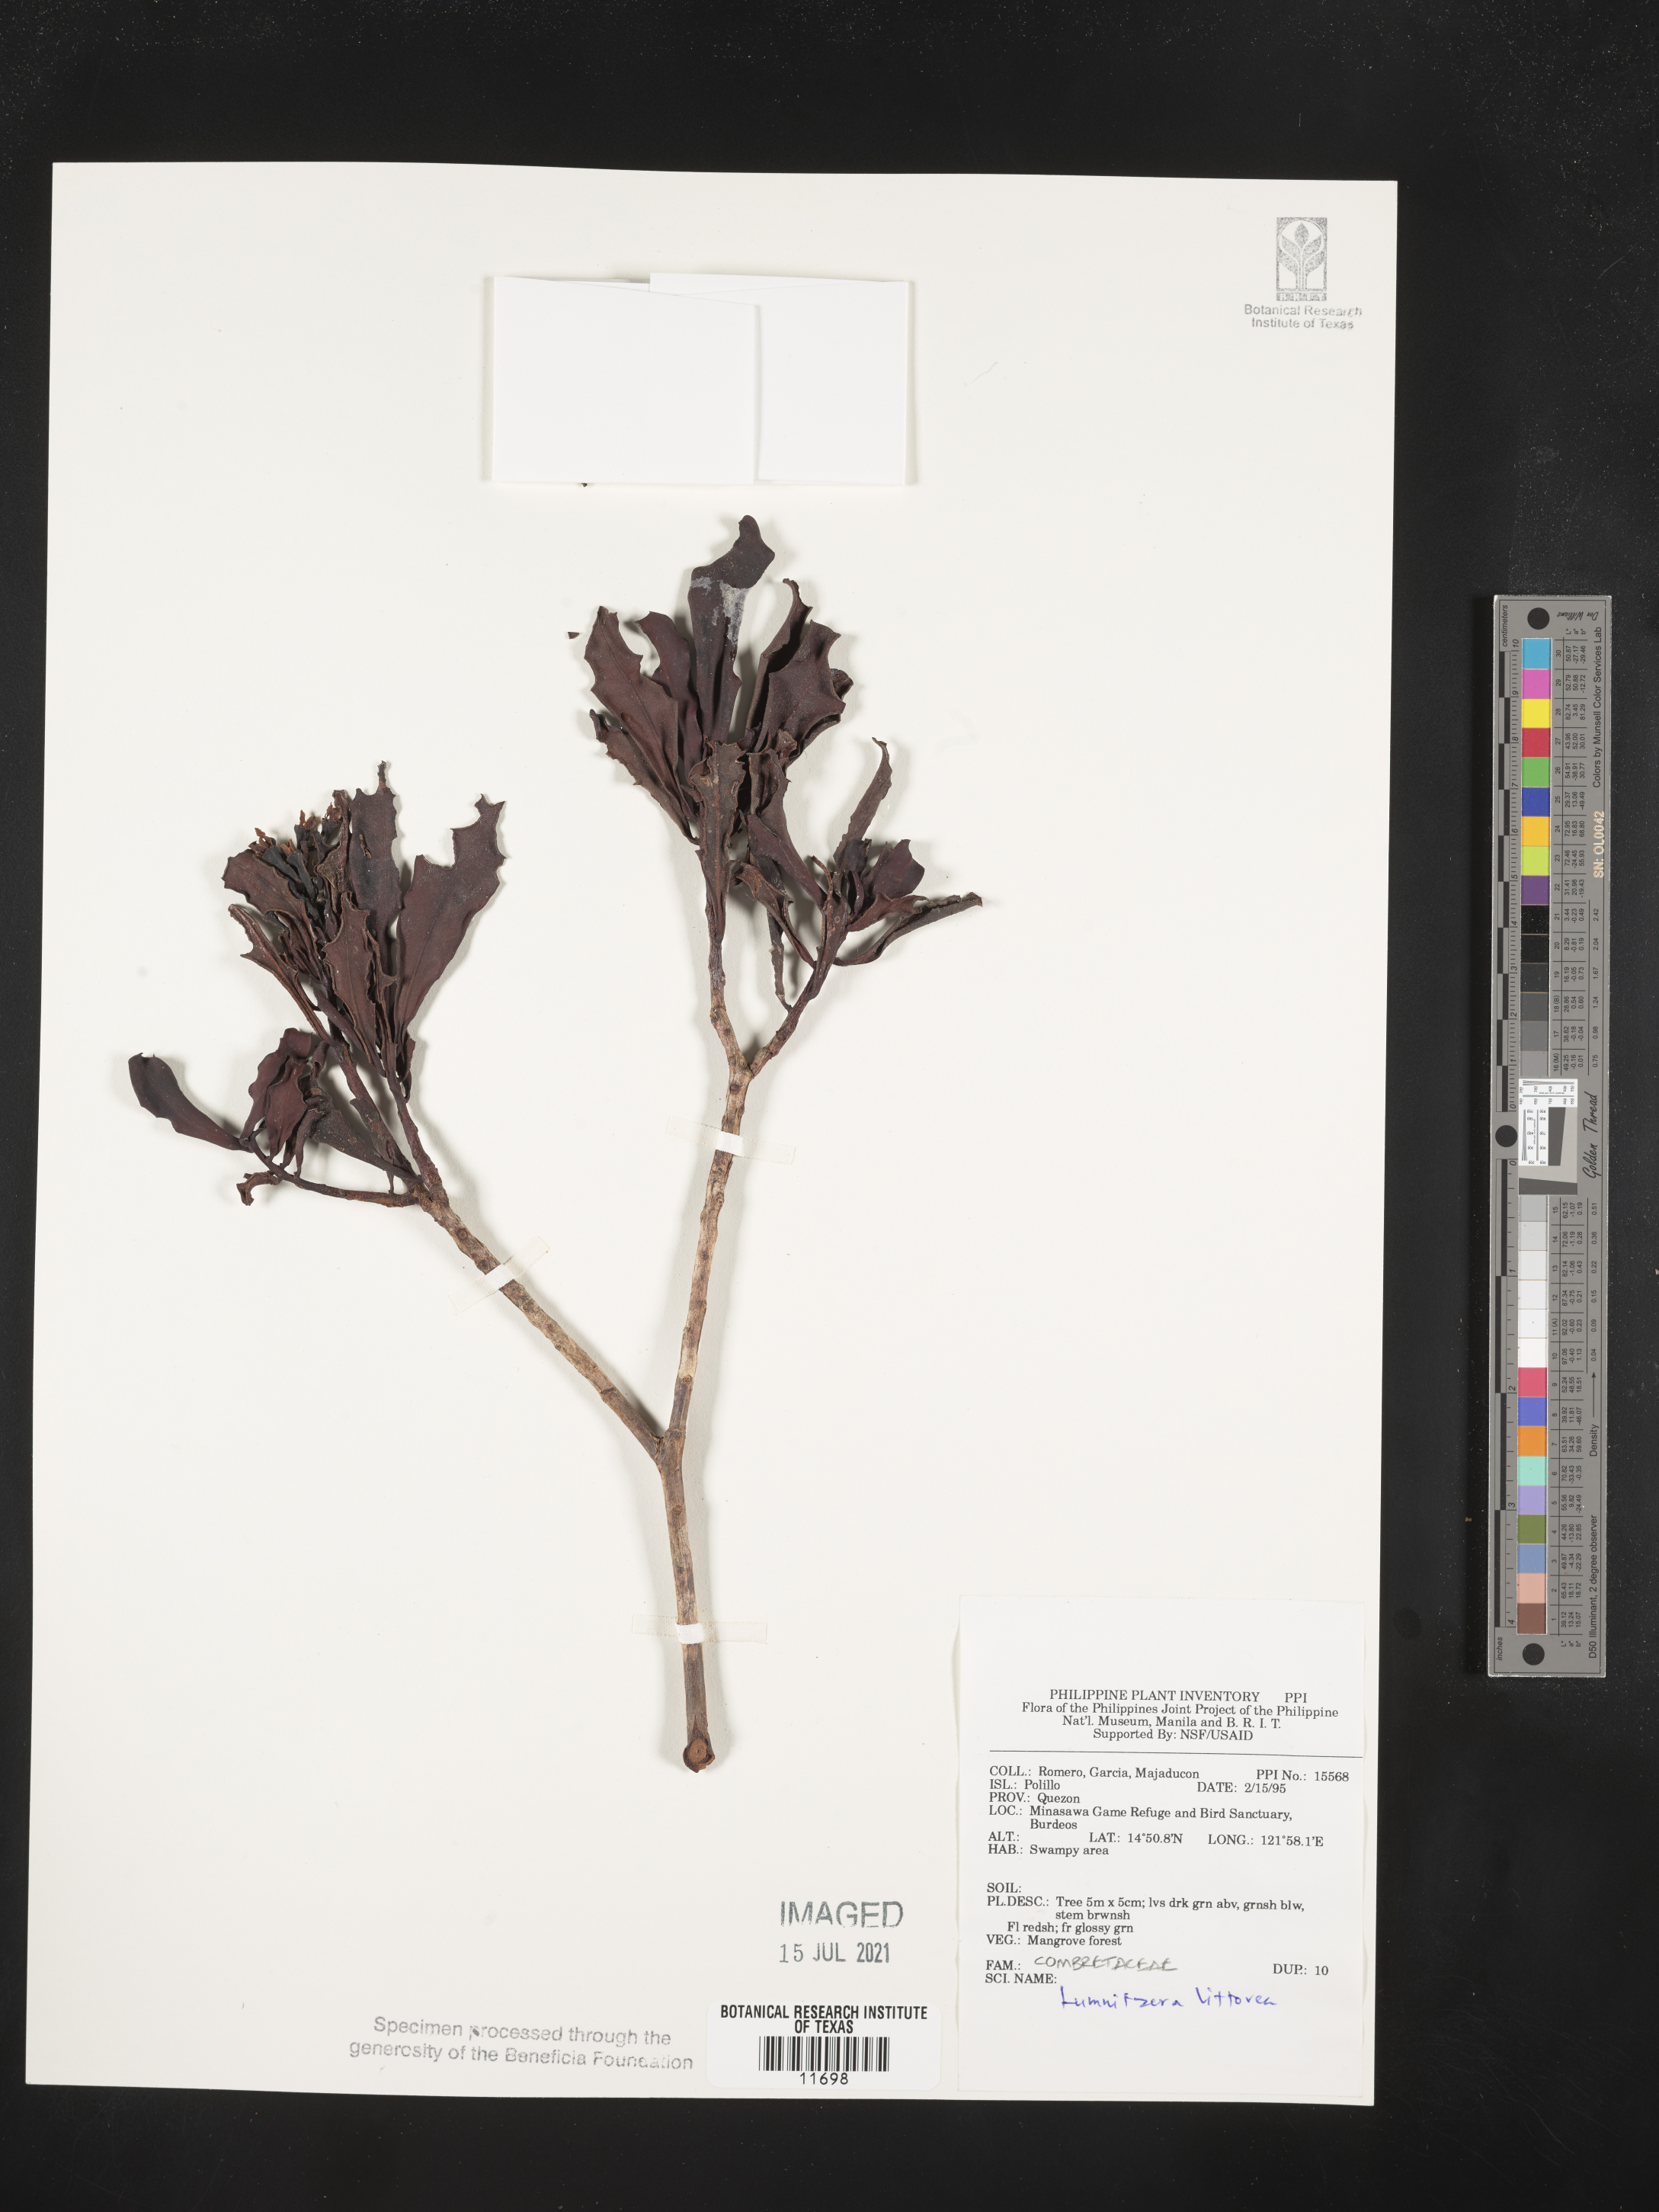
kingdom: Plantae
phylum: Tracheophyta
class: Magnoliopsida
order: Myrtales
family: Combretaceae
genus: Lumnitzera
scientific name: Lumnitzera littorea
